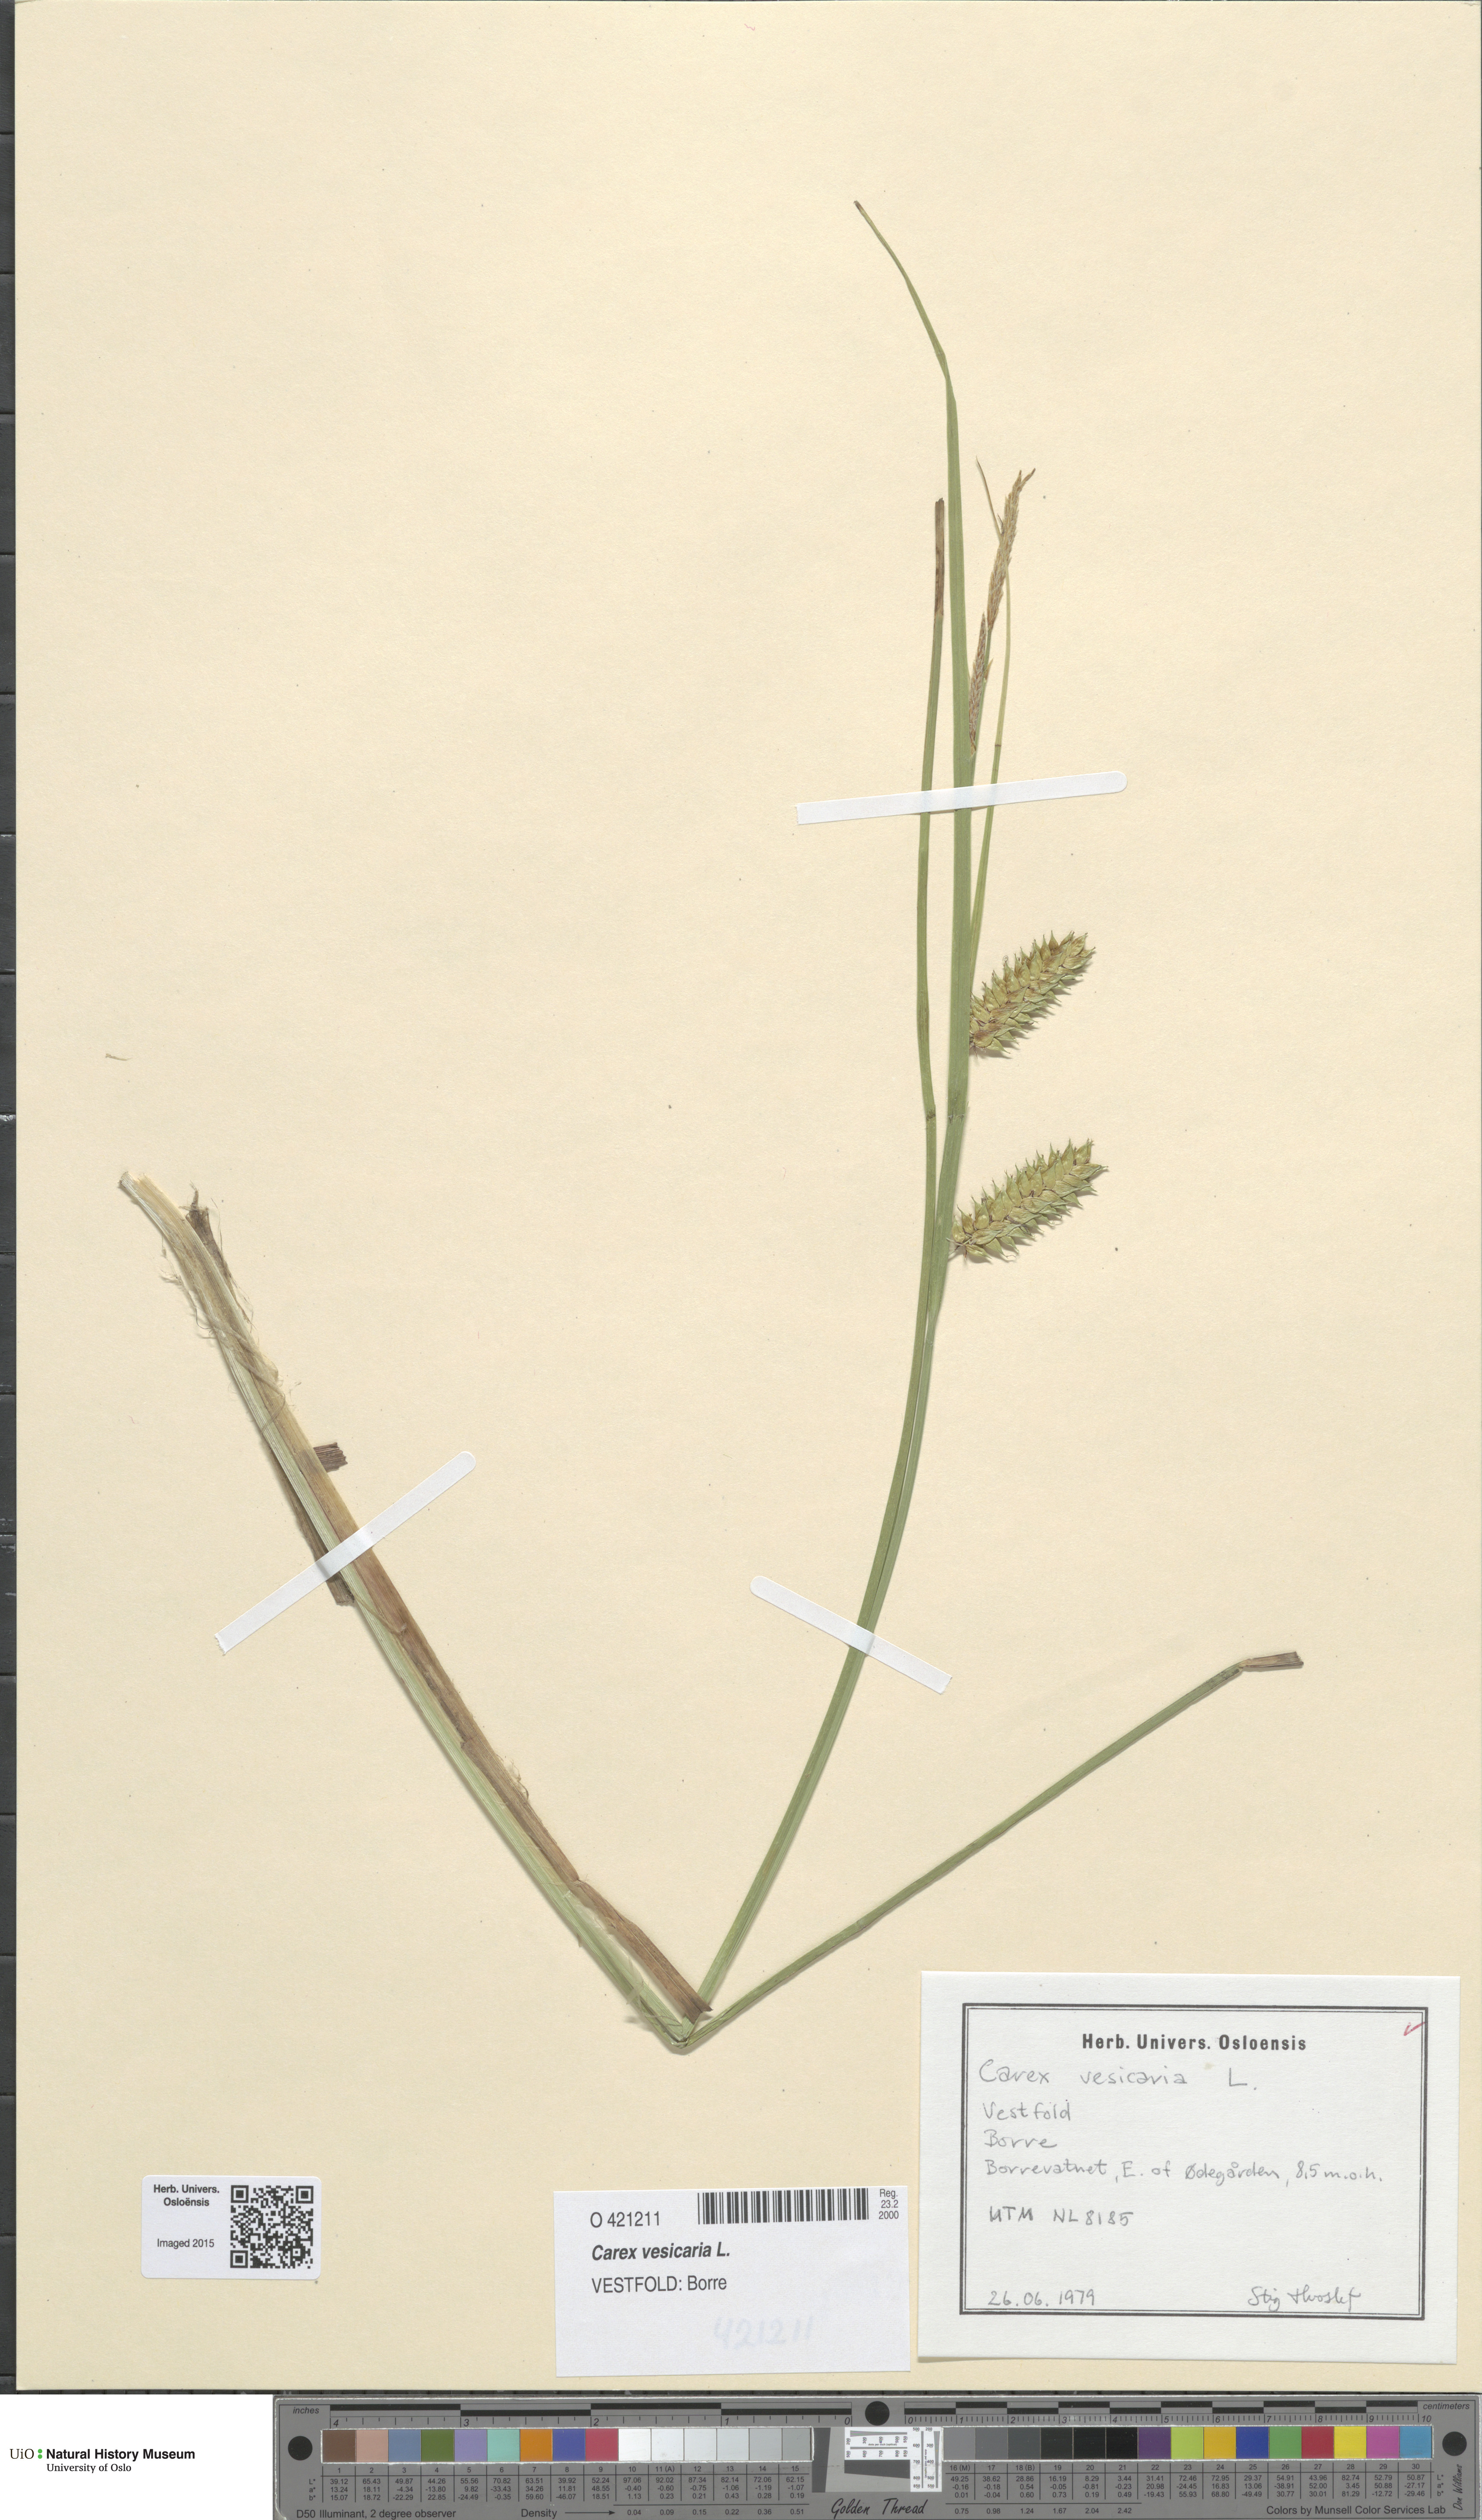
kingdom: Plantae
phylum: Tracheophyta
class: Liliopsida
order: Poales
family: Cyperaceae
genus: Carex
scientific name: Carex vesicaria
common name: Bladder-sedge
